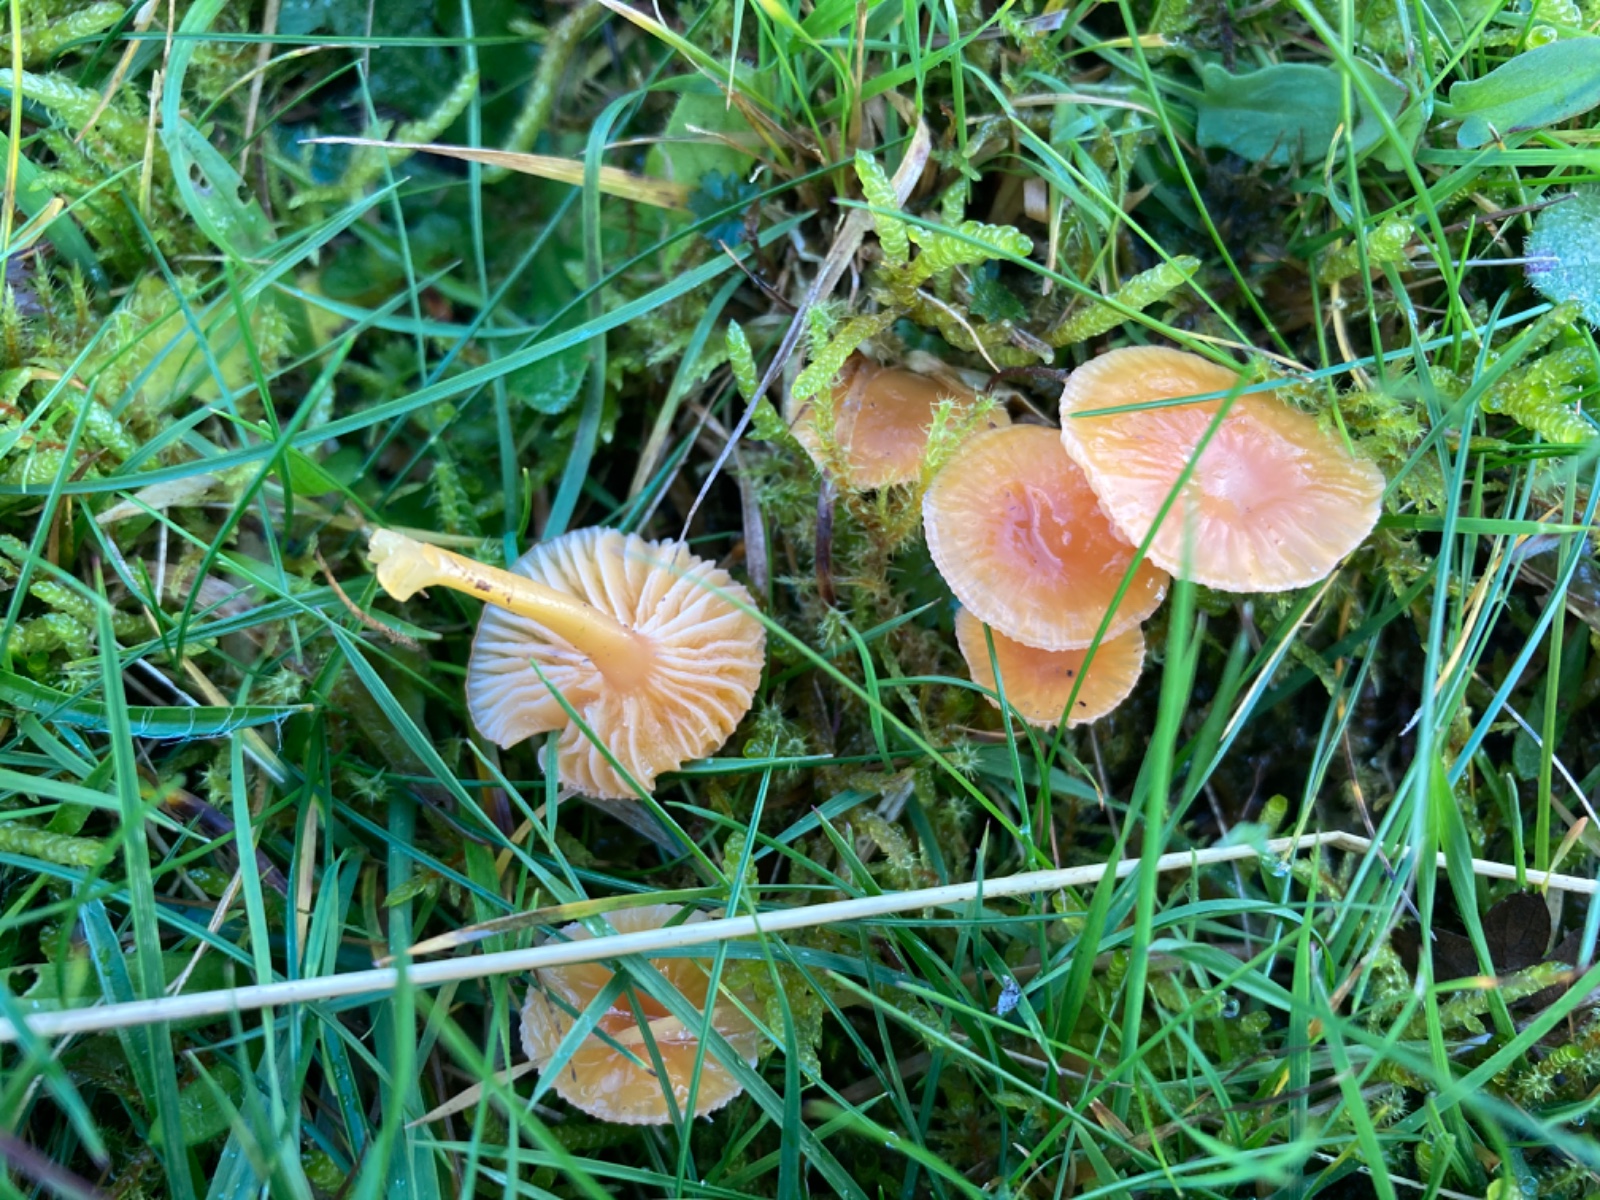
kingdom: Fungi
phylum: Basidiomycota
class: Agaricomycetes
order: Agaricales
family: Hygrophoraceae
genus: Gliophorus
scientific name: Gliophorus laetus
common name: brusk-vokshat
